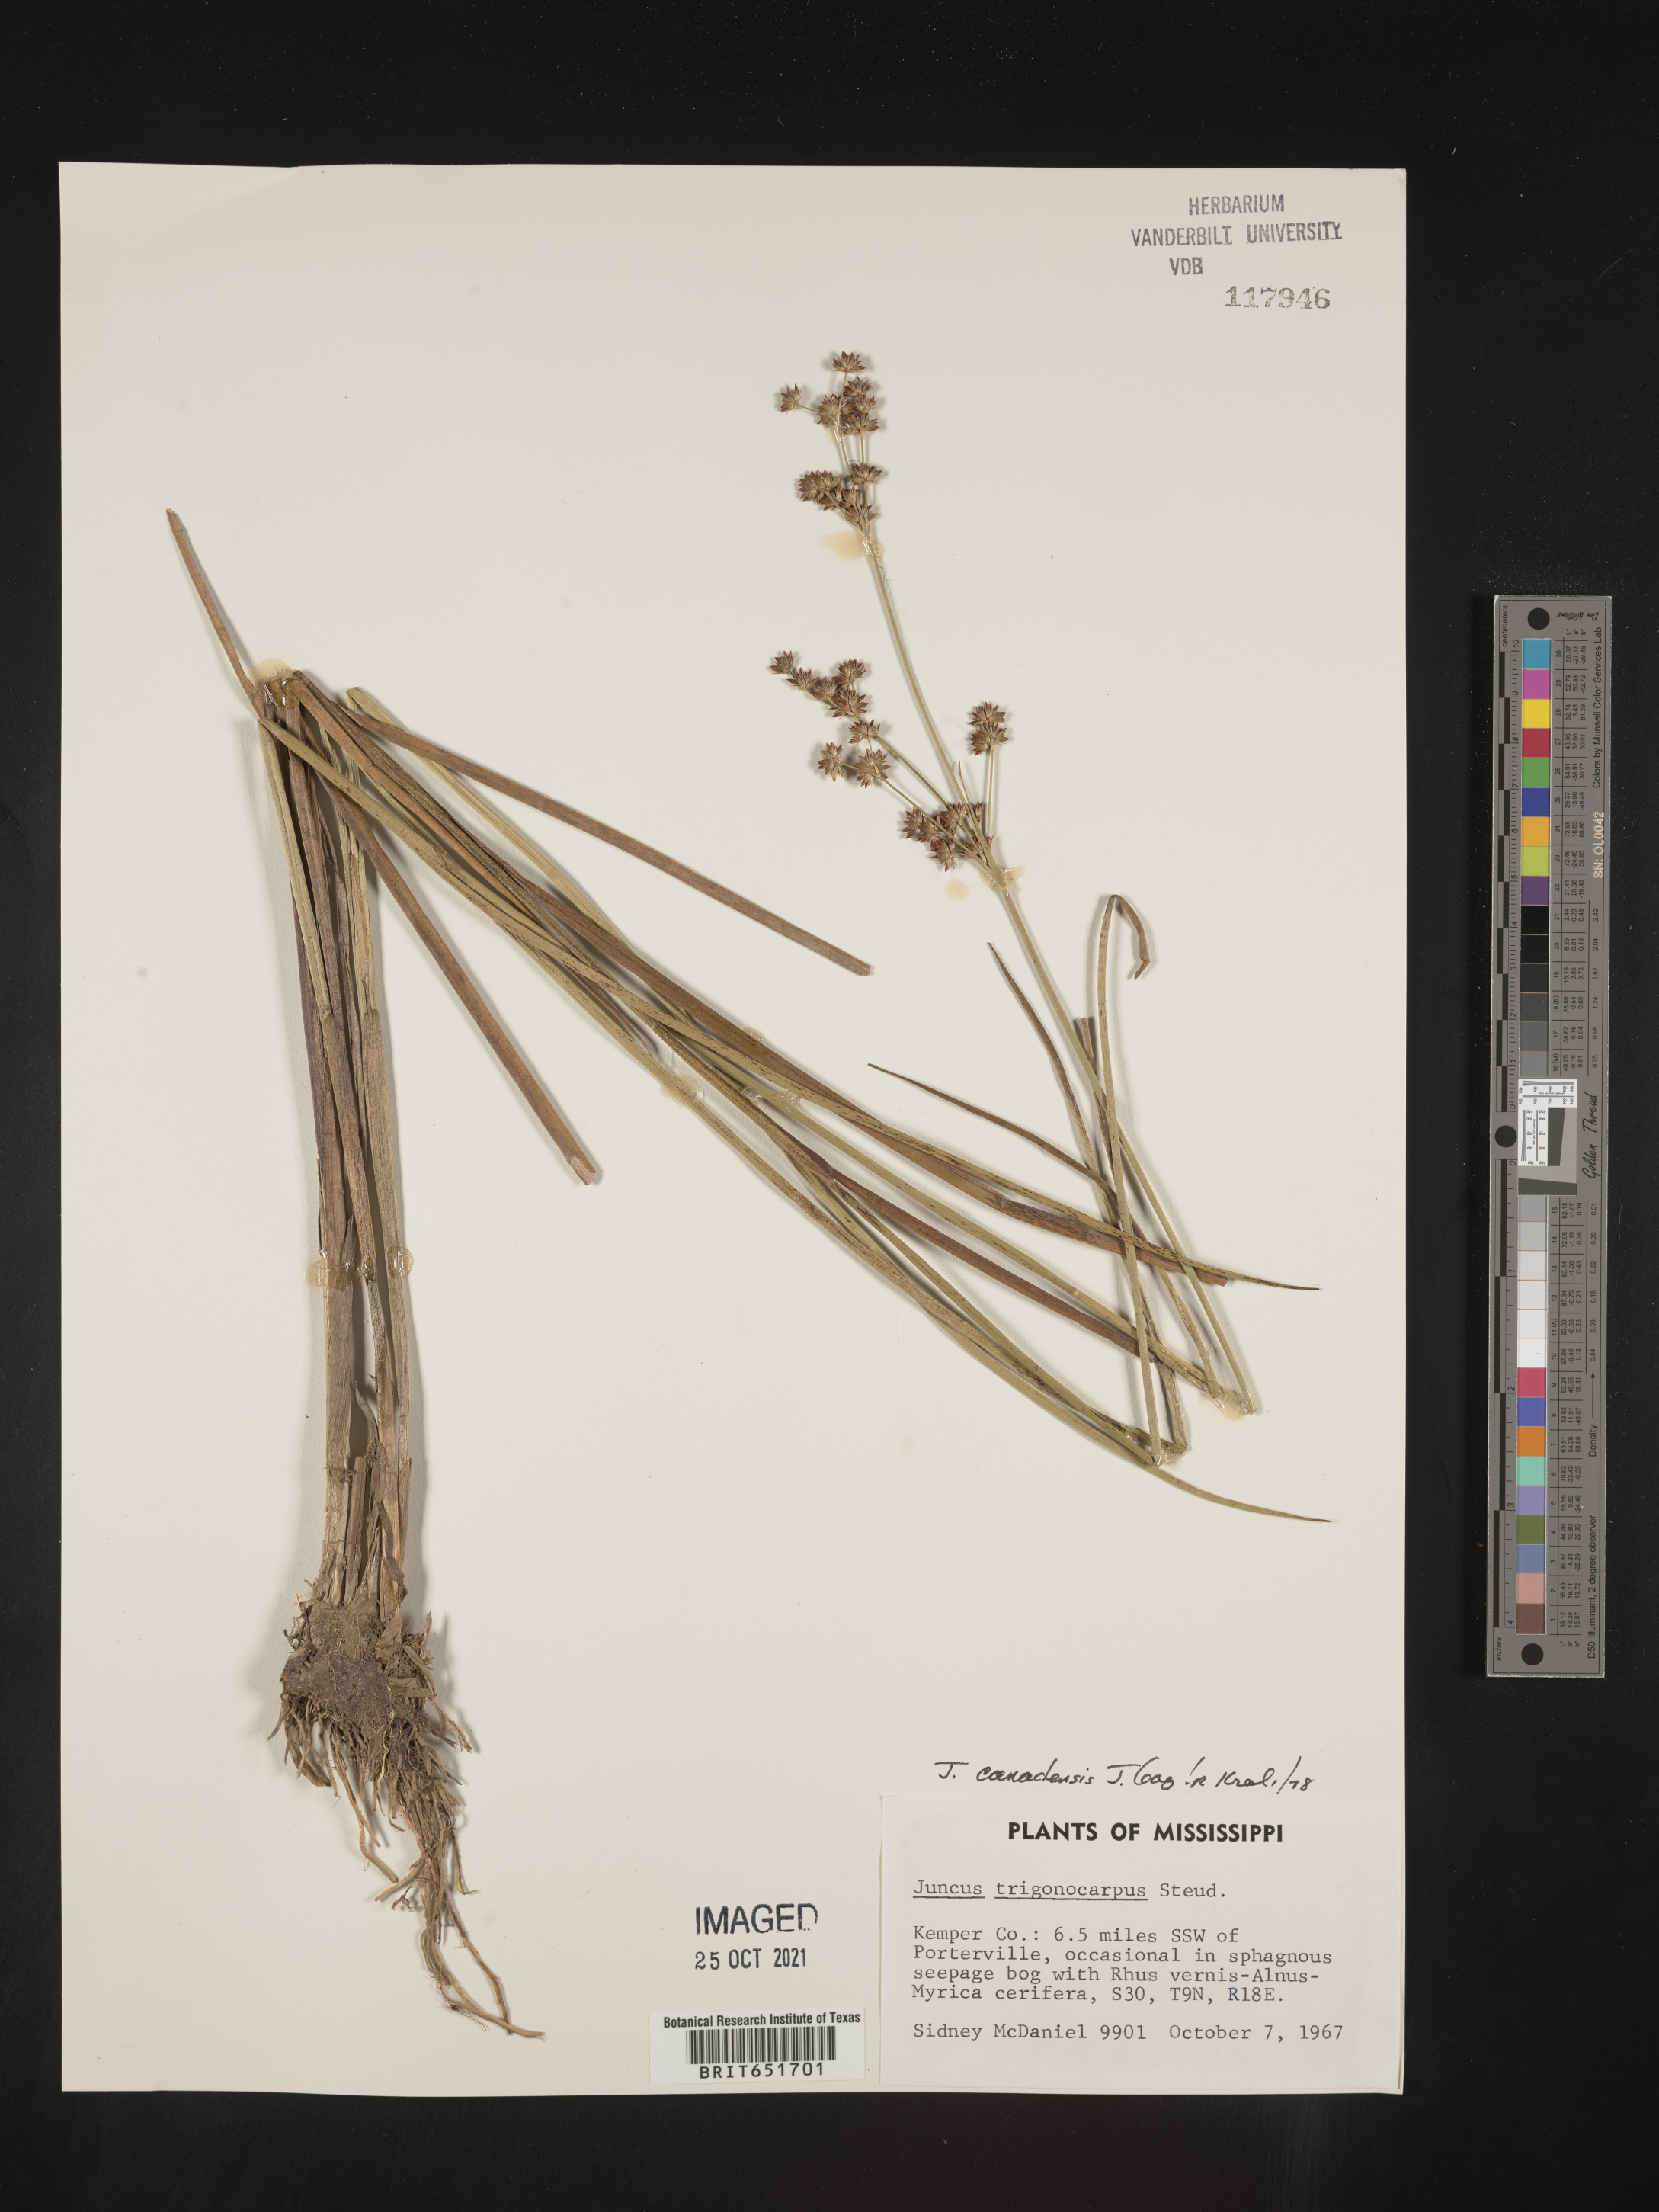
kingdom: Plantae
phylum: Tracheophyta
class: Liliopsida
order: Poales
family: Juncaceae
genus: Juncus
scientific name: Juncus canadensis
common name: Canada rush
